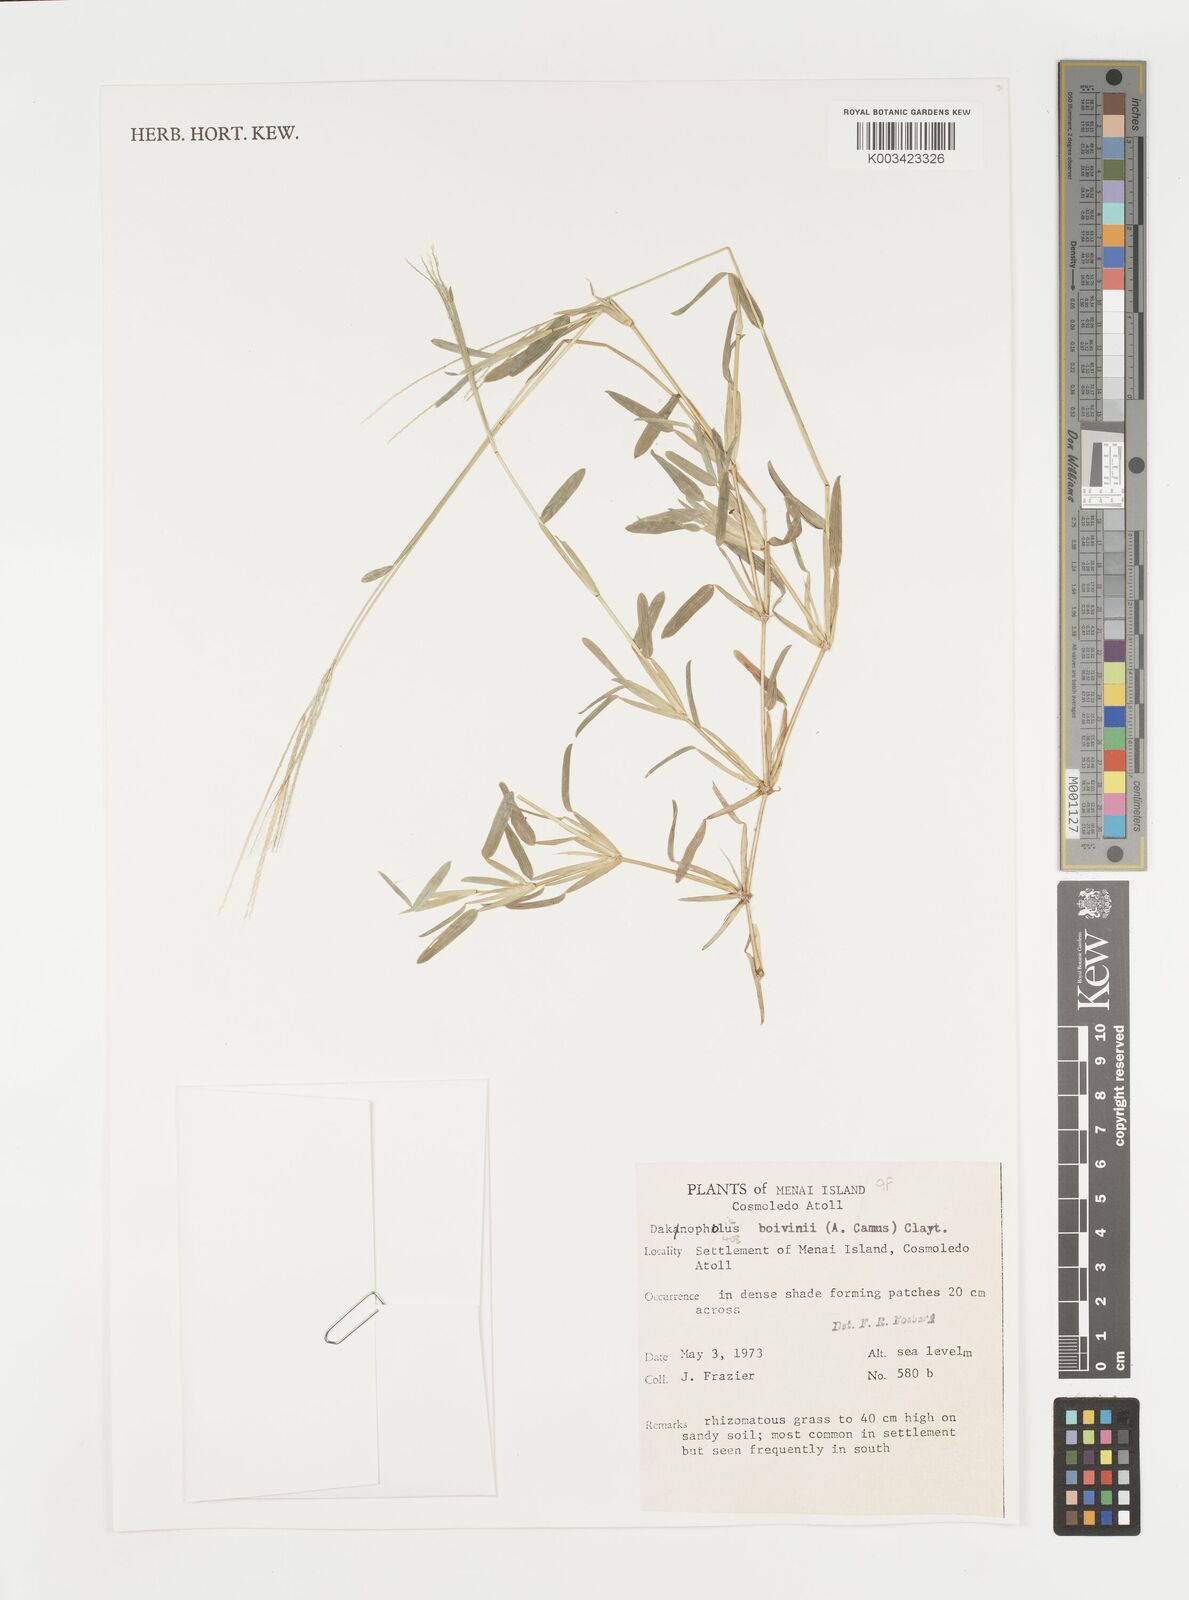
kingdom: Plantae
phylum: Tracheophyta
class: Liliopsida
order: Poales
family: Poaceae
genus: Daknopholis
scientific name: Daknopholis boivinii
